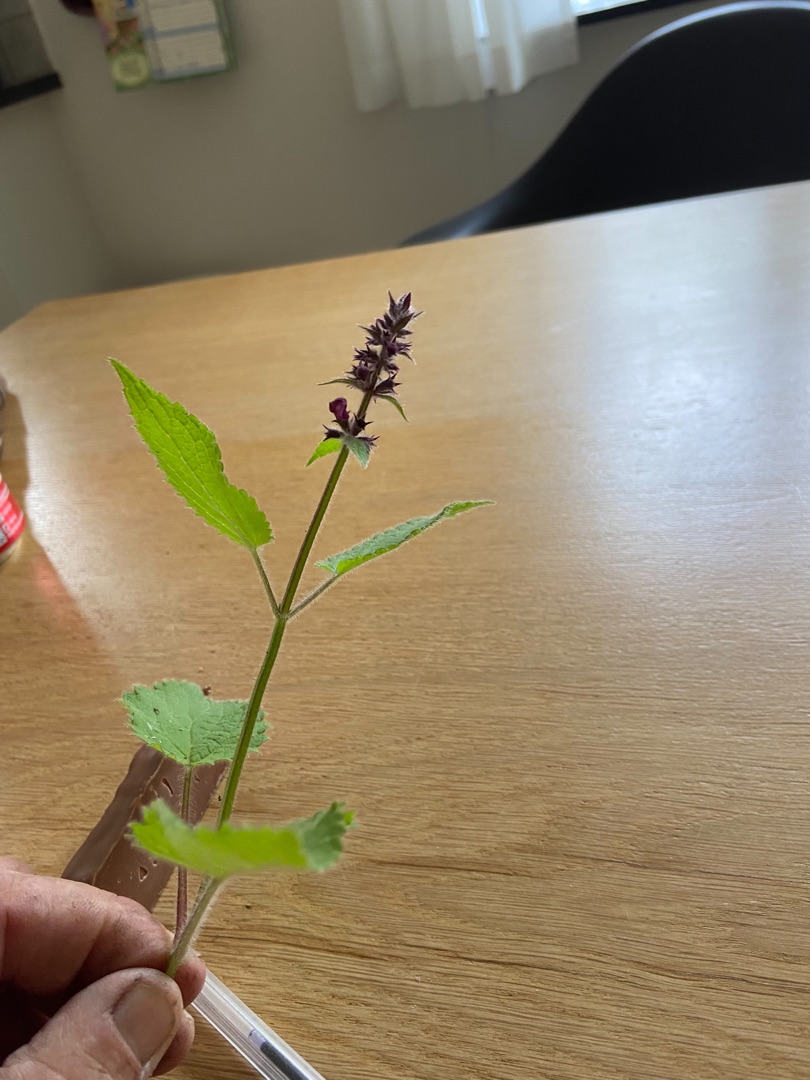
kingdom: Plantae
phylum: Tracheophyta
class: Magnoliopsida
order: Lamiales
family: Lamiaceae
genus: Stachys
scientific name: Stachys sylvatica
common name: Skov-galtetand
